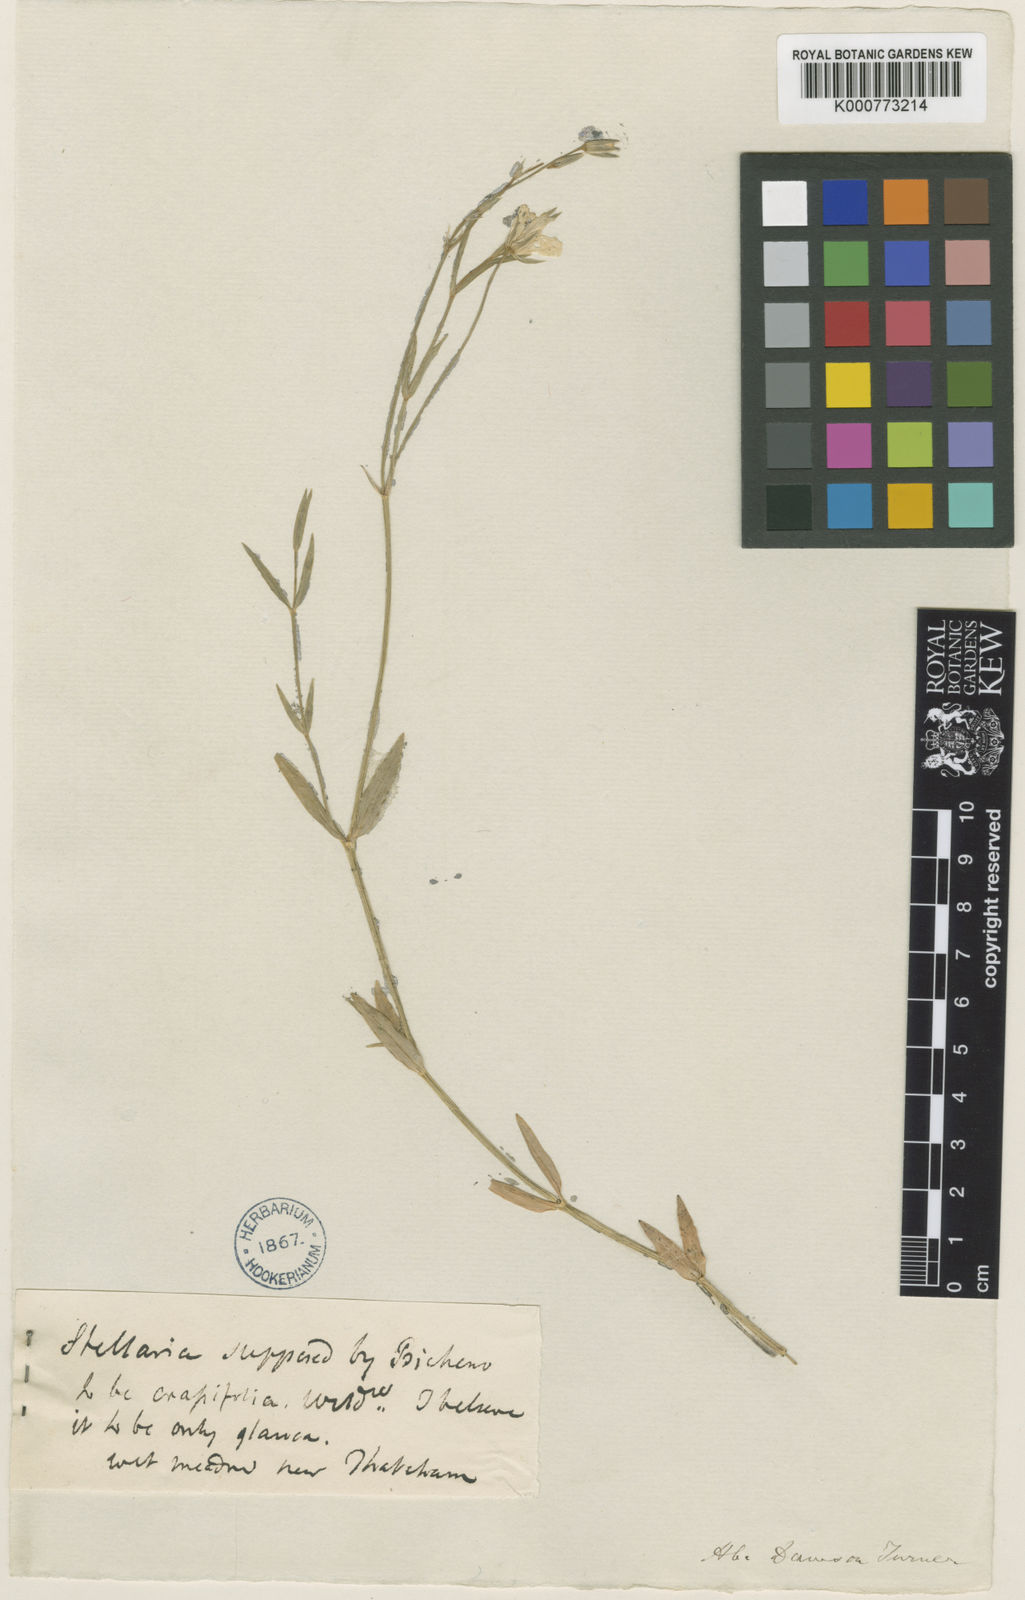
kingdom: Plantae
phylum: Tracheophyta
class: Magnoliopsida
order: Caryophyllales
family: Caryophyllaceae
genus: Stellaria
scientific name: Stellaria
